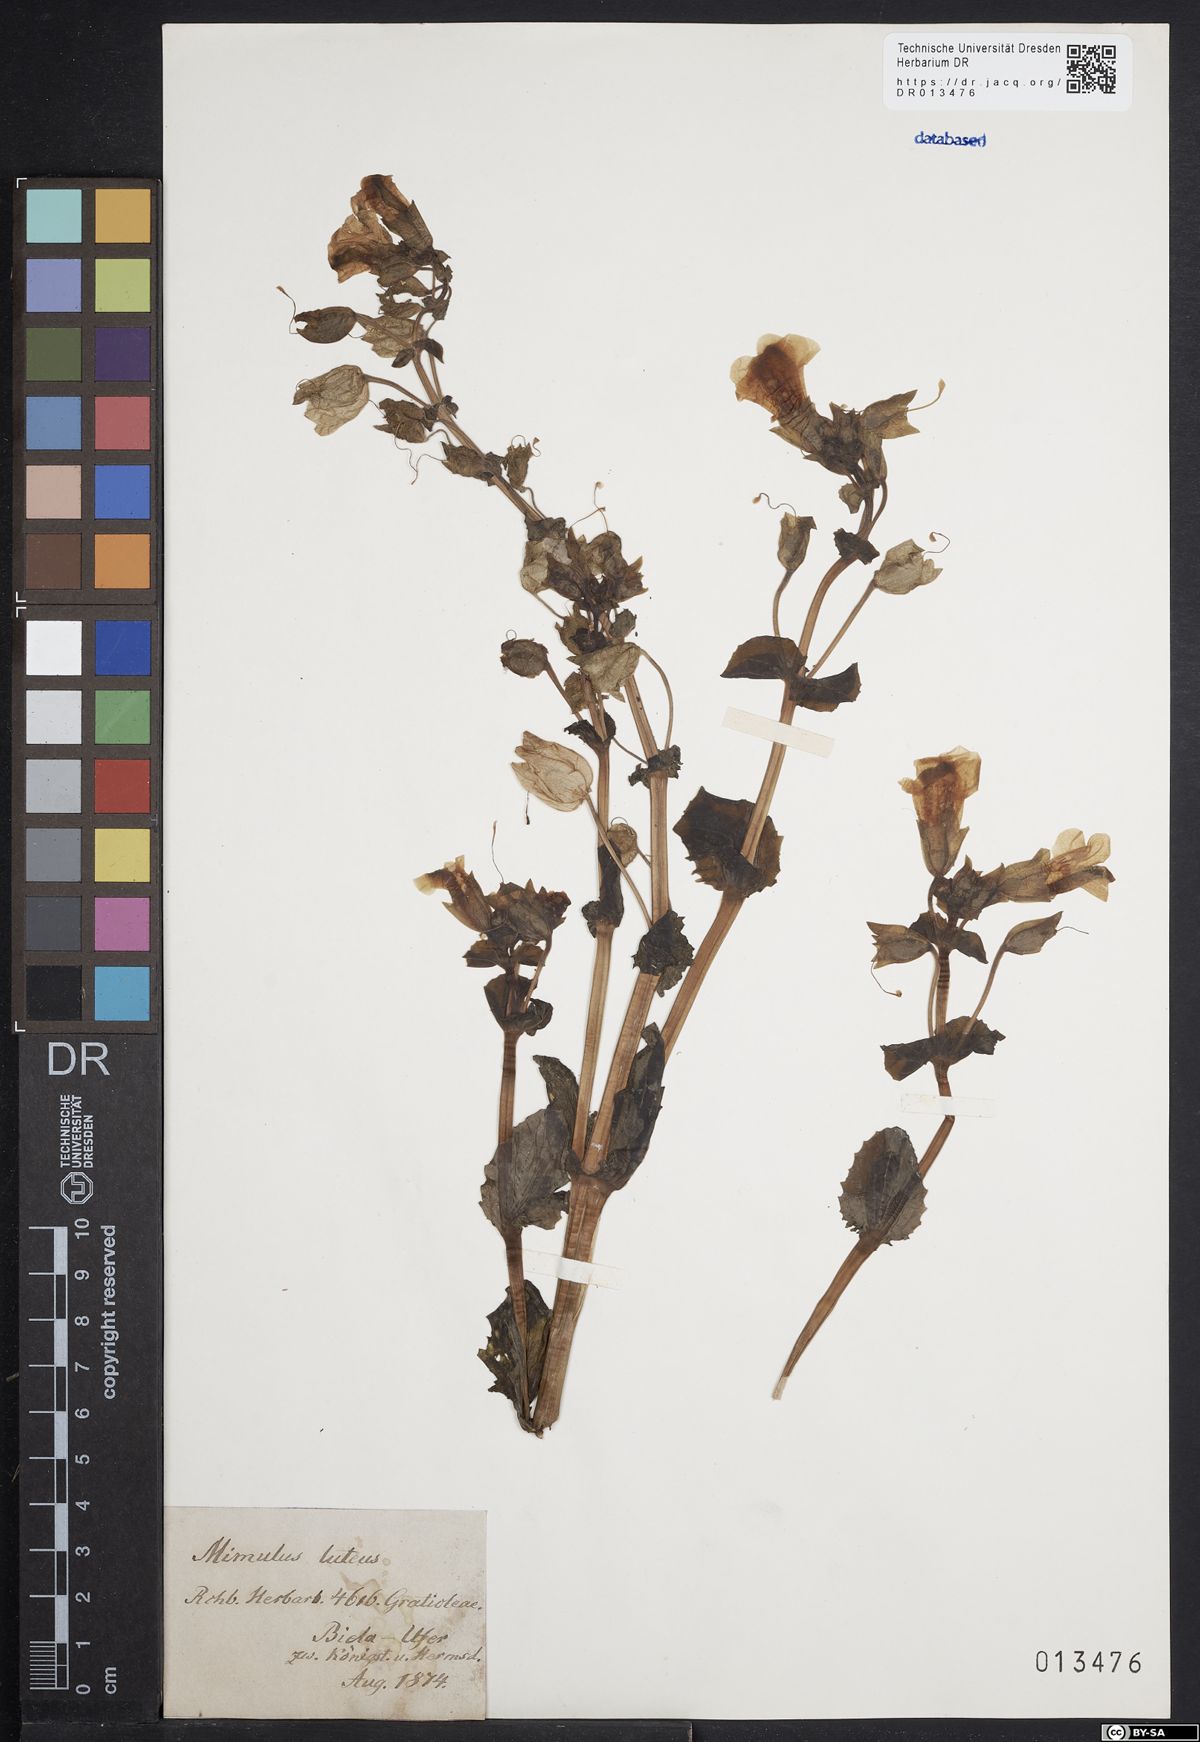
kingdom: Plantae
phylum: Tracheophyta
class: Magnoliopsida
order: Lamiales
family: Phrymaceae
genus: Erythranthe
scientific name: Erythranthe guttata
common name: Monkeyflower
